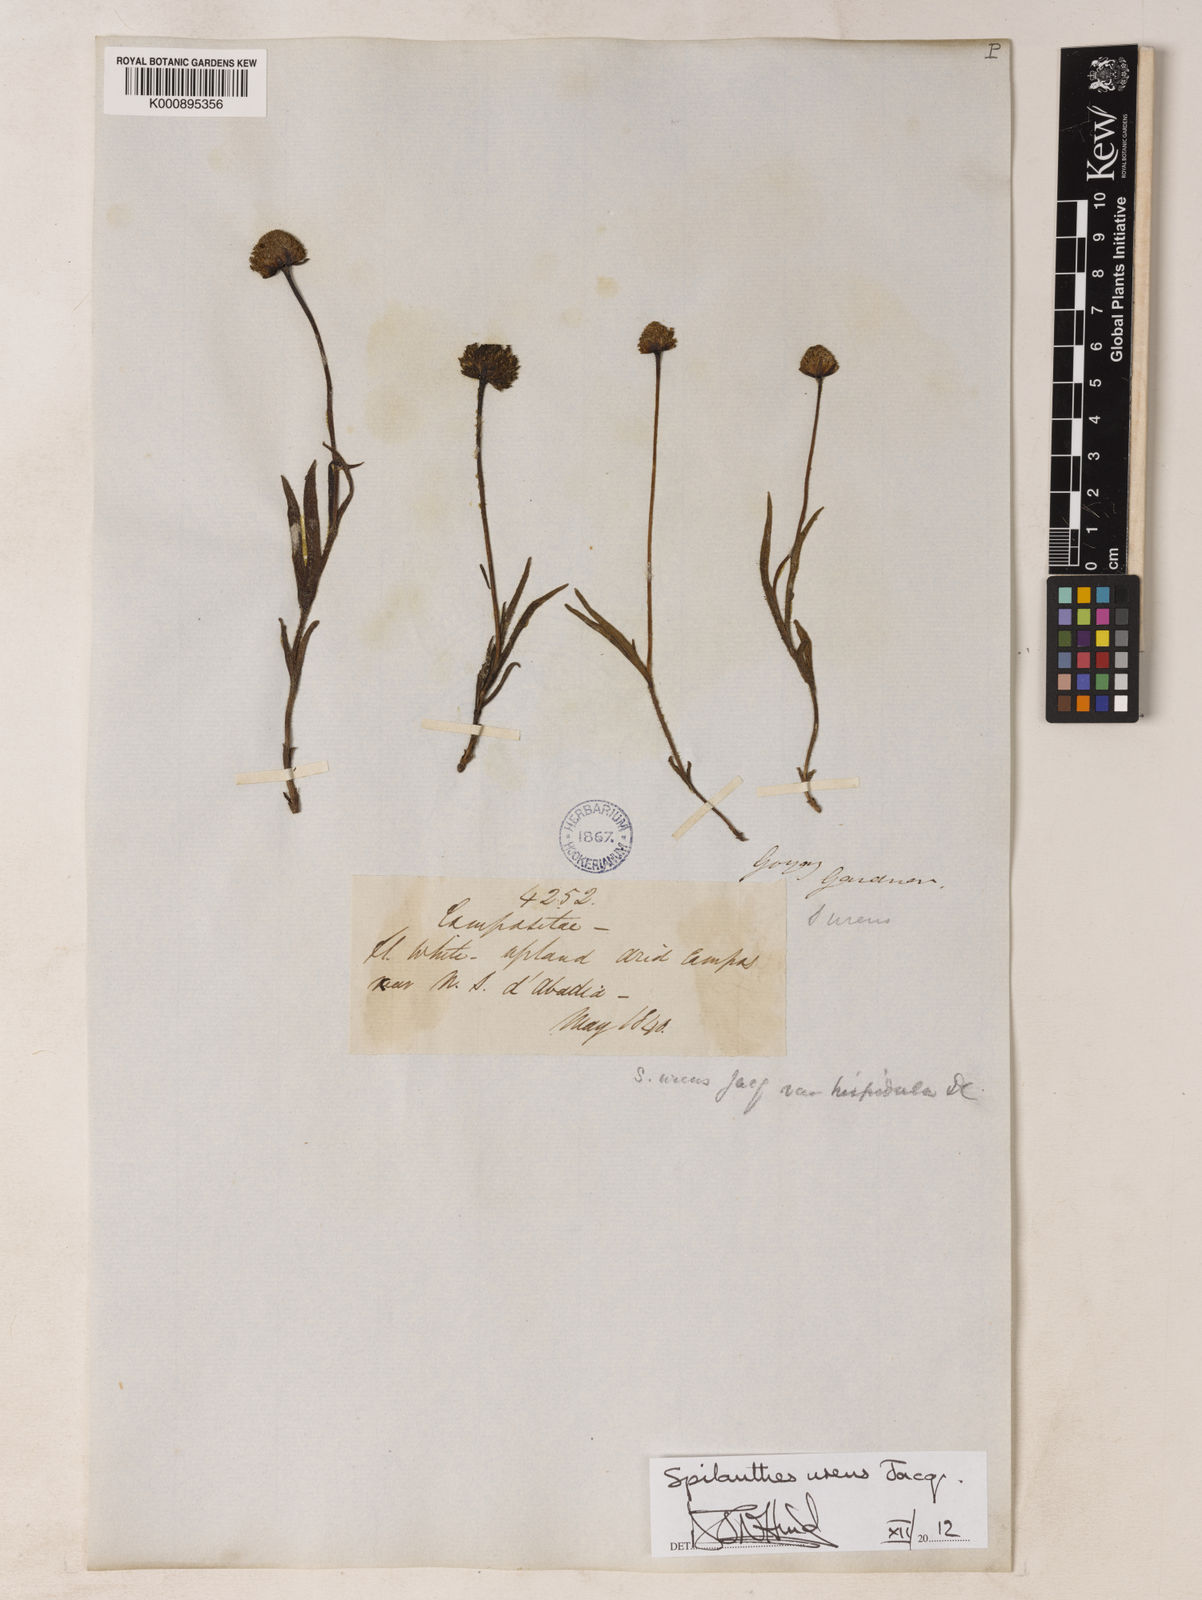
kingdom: Plantae
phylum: Tracheophyta
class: Magnoliopsida
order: Asterales
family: Asteraceae
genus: Spilanthes
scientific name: Spilanthes
